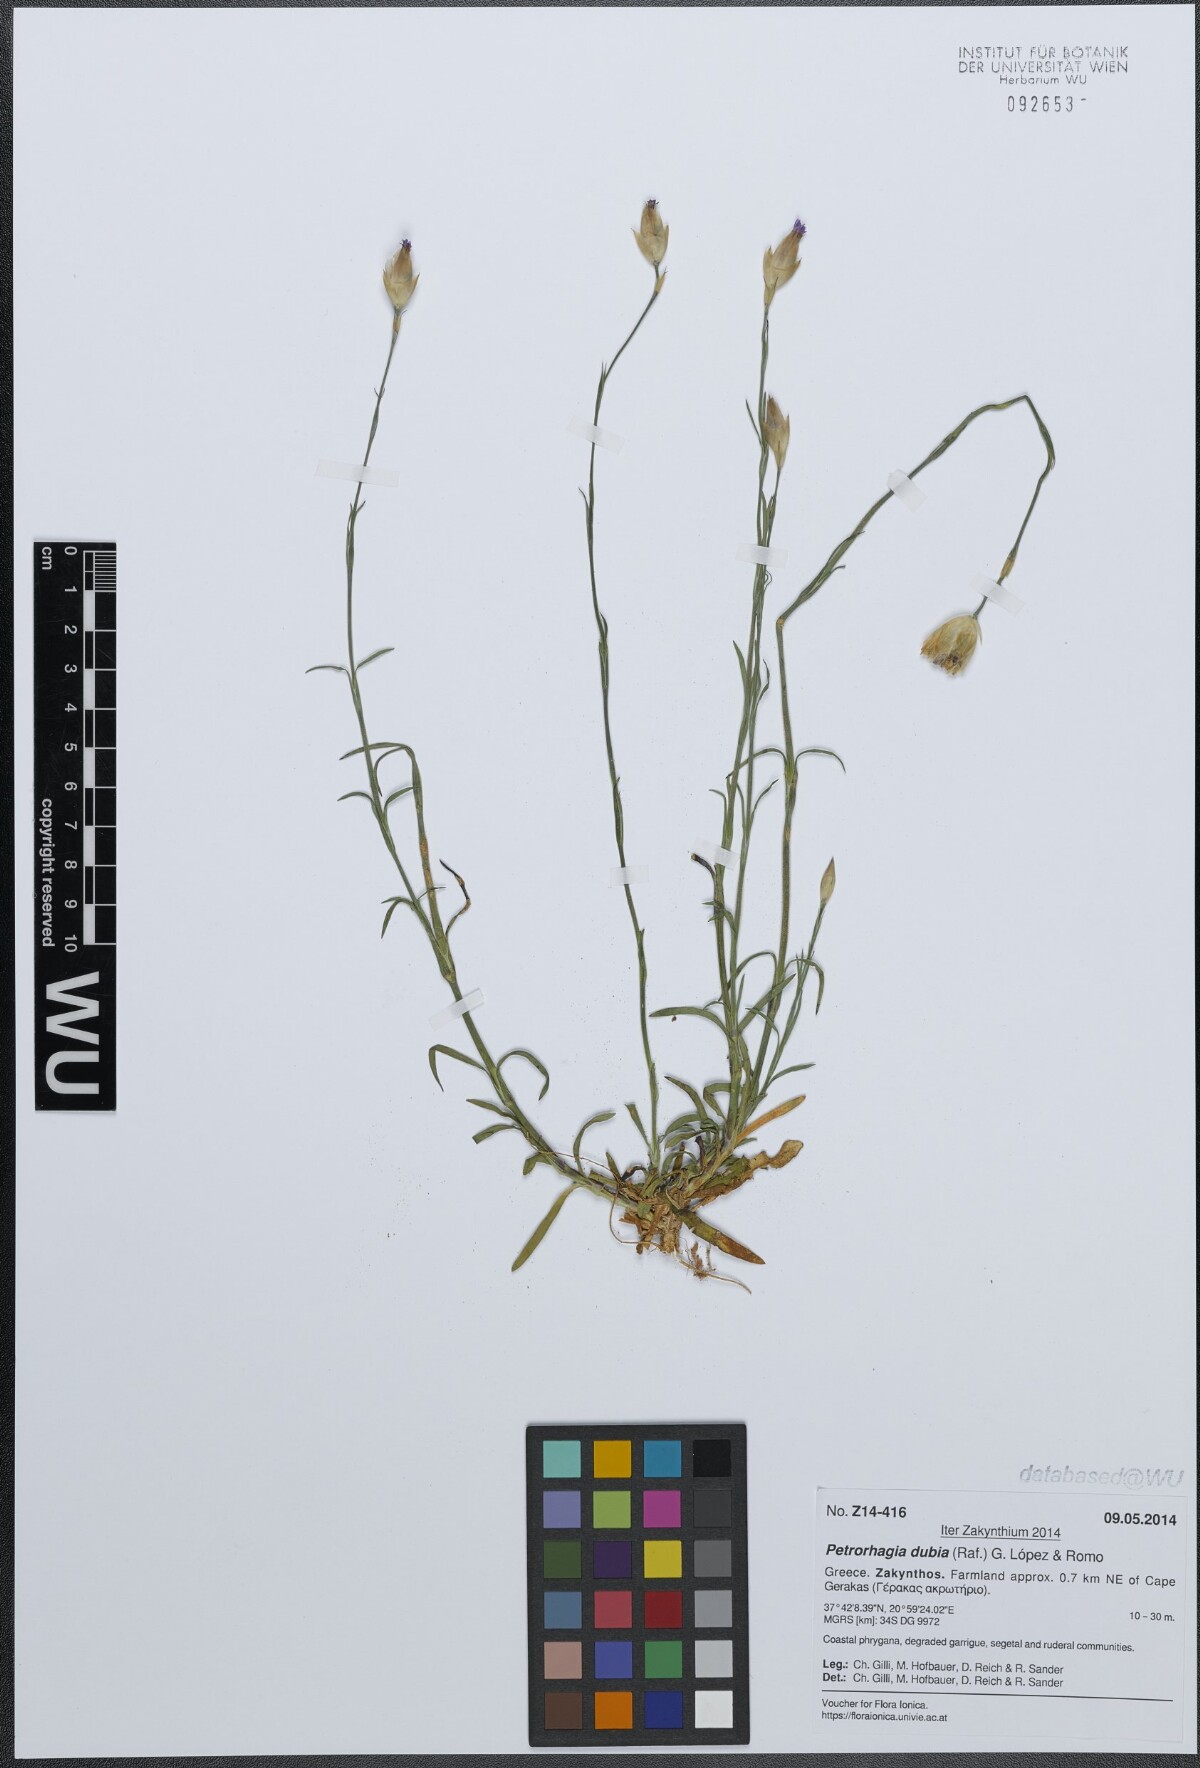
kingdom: Plantae
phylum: Tracheophyta
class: Magnoliopsida
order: Caryophyllales
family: Caryophyllaceae
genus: Petrorhagia
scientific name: Petrorhagia dubia
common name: Hairypink
